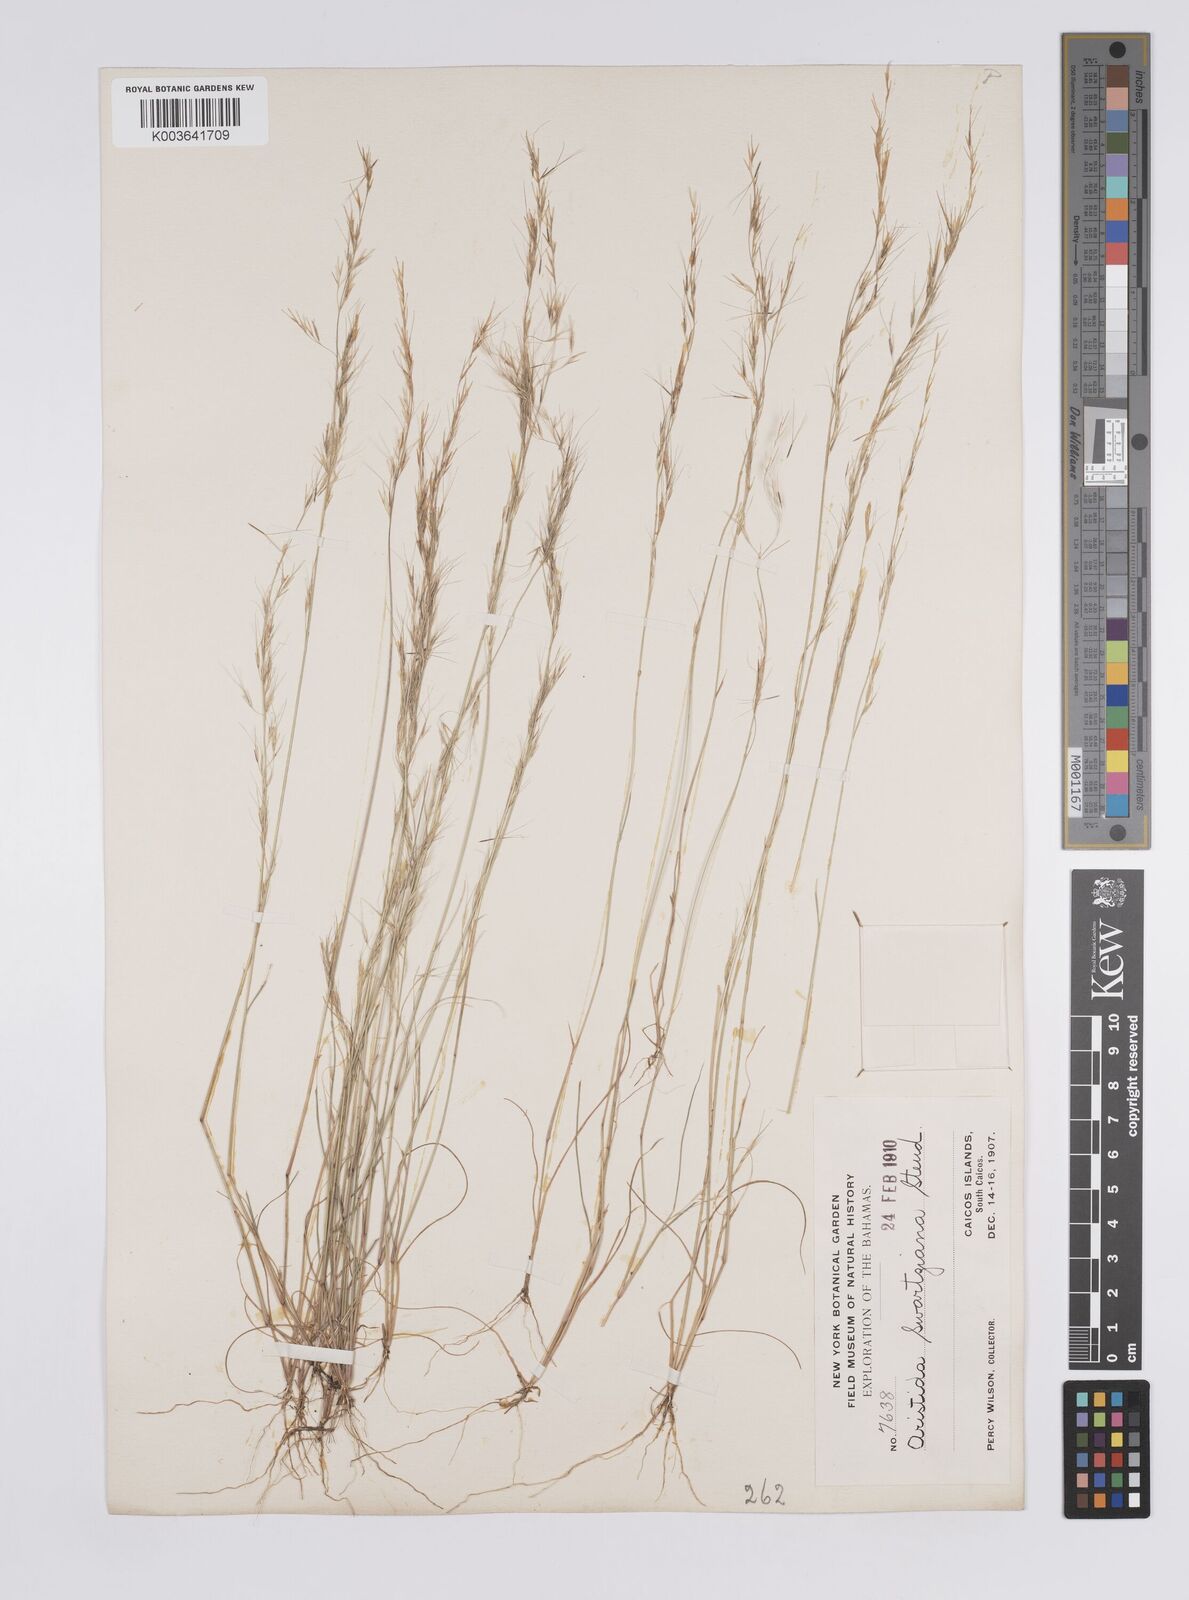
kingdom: Plantae
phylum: Tracheophyta
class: Liliopsida
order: Poales
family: Poaceae
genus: Aristida
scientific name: Aristida
